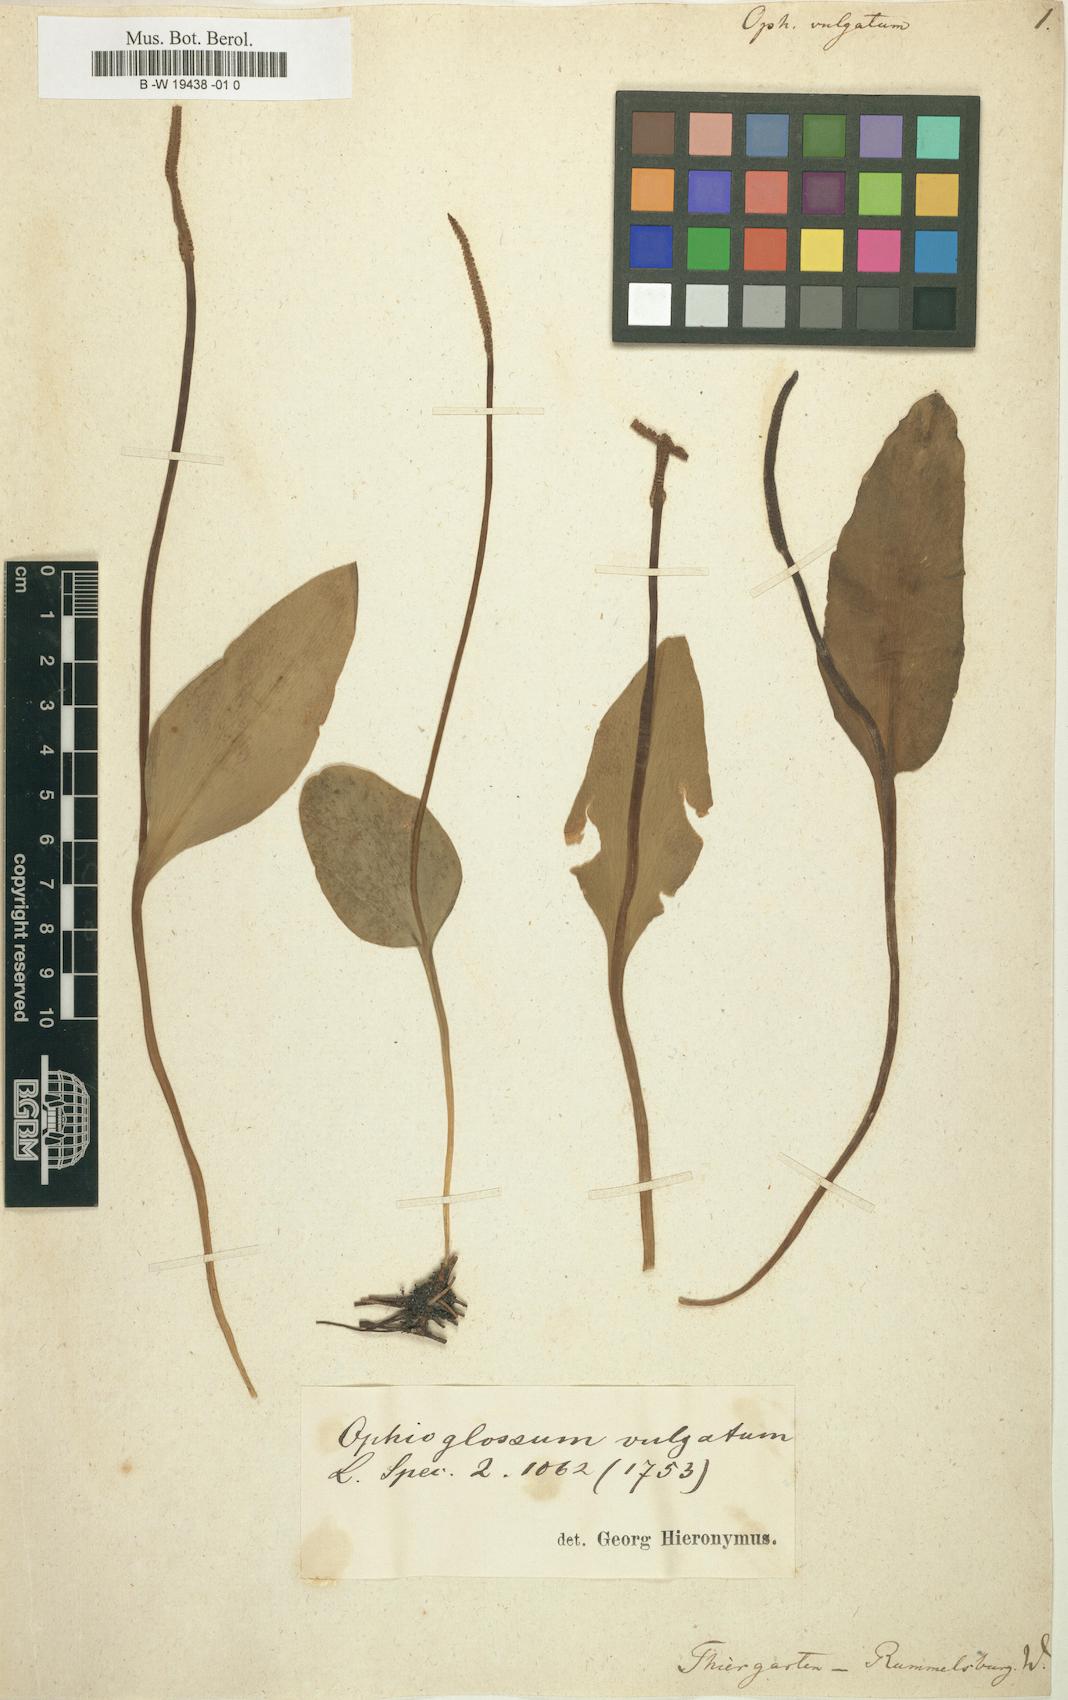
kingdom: Plantae
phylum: Tracheophyta
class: Polypodiopsida
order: Ophioglossales
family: Ophioglossaceae
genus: Ophioglossum
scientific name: Ophioglossum vulgatum
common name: Adder's-tongue
